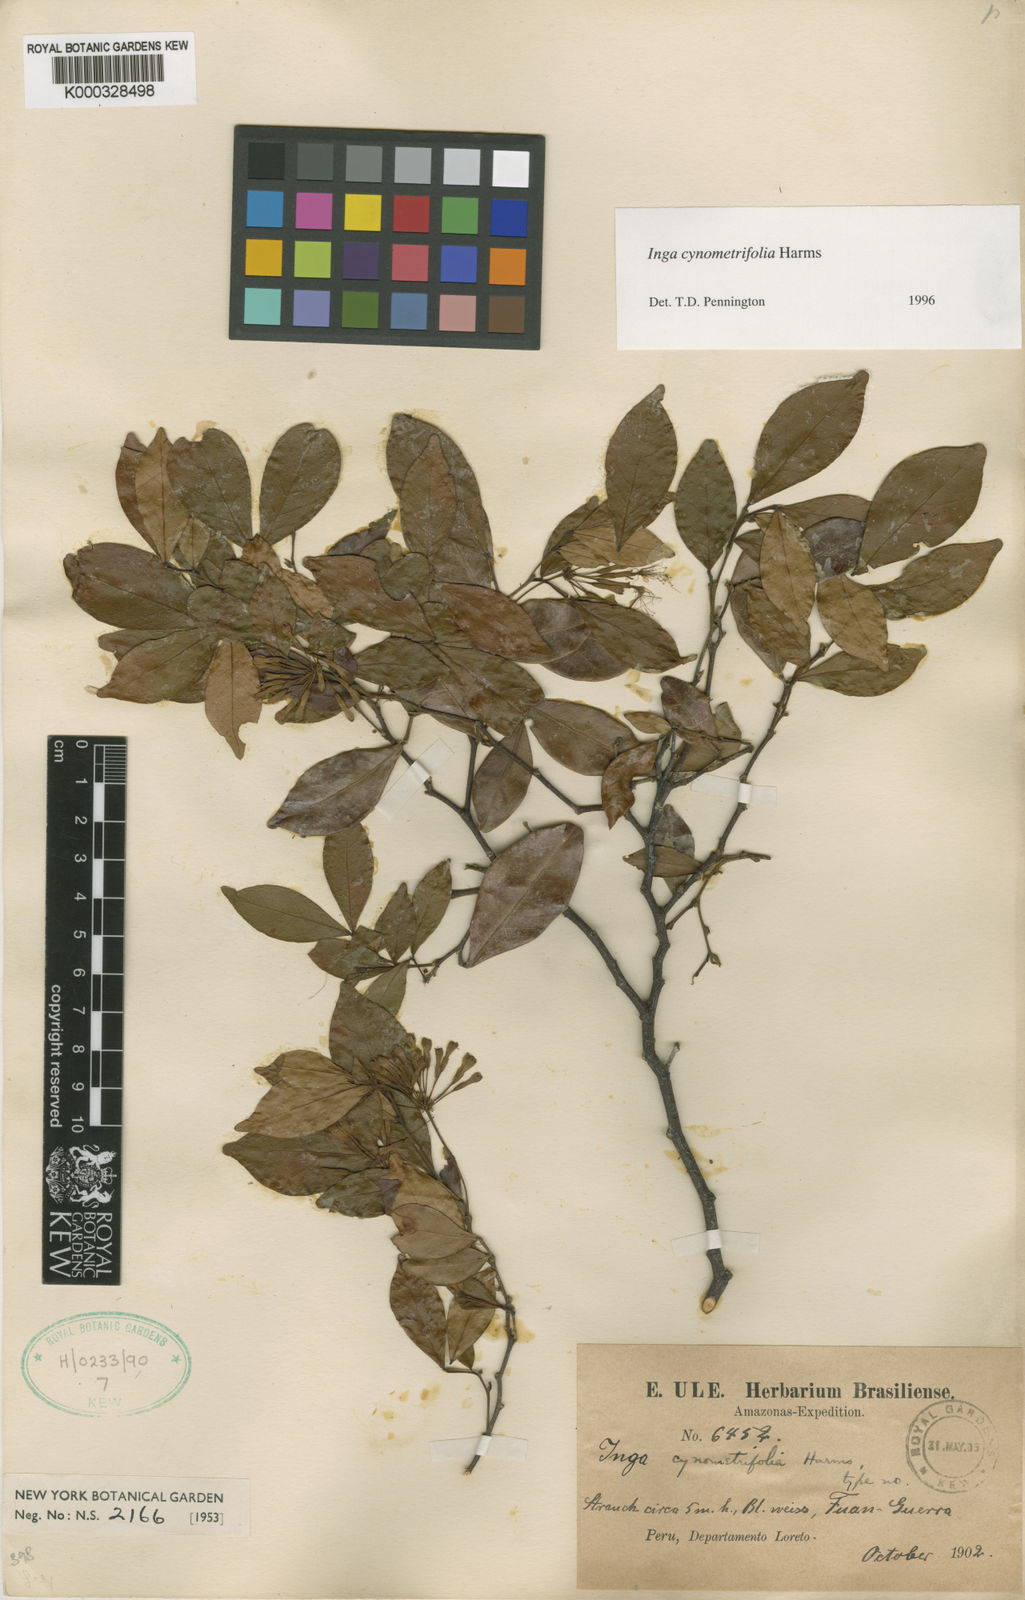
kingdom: Plantae
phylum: Tracheophyta
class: Magnoliopsida
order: Fabales
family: Fabaceae
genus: Inga
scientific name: Inga cynometrifolia
